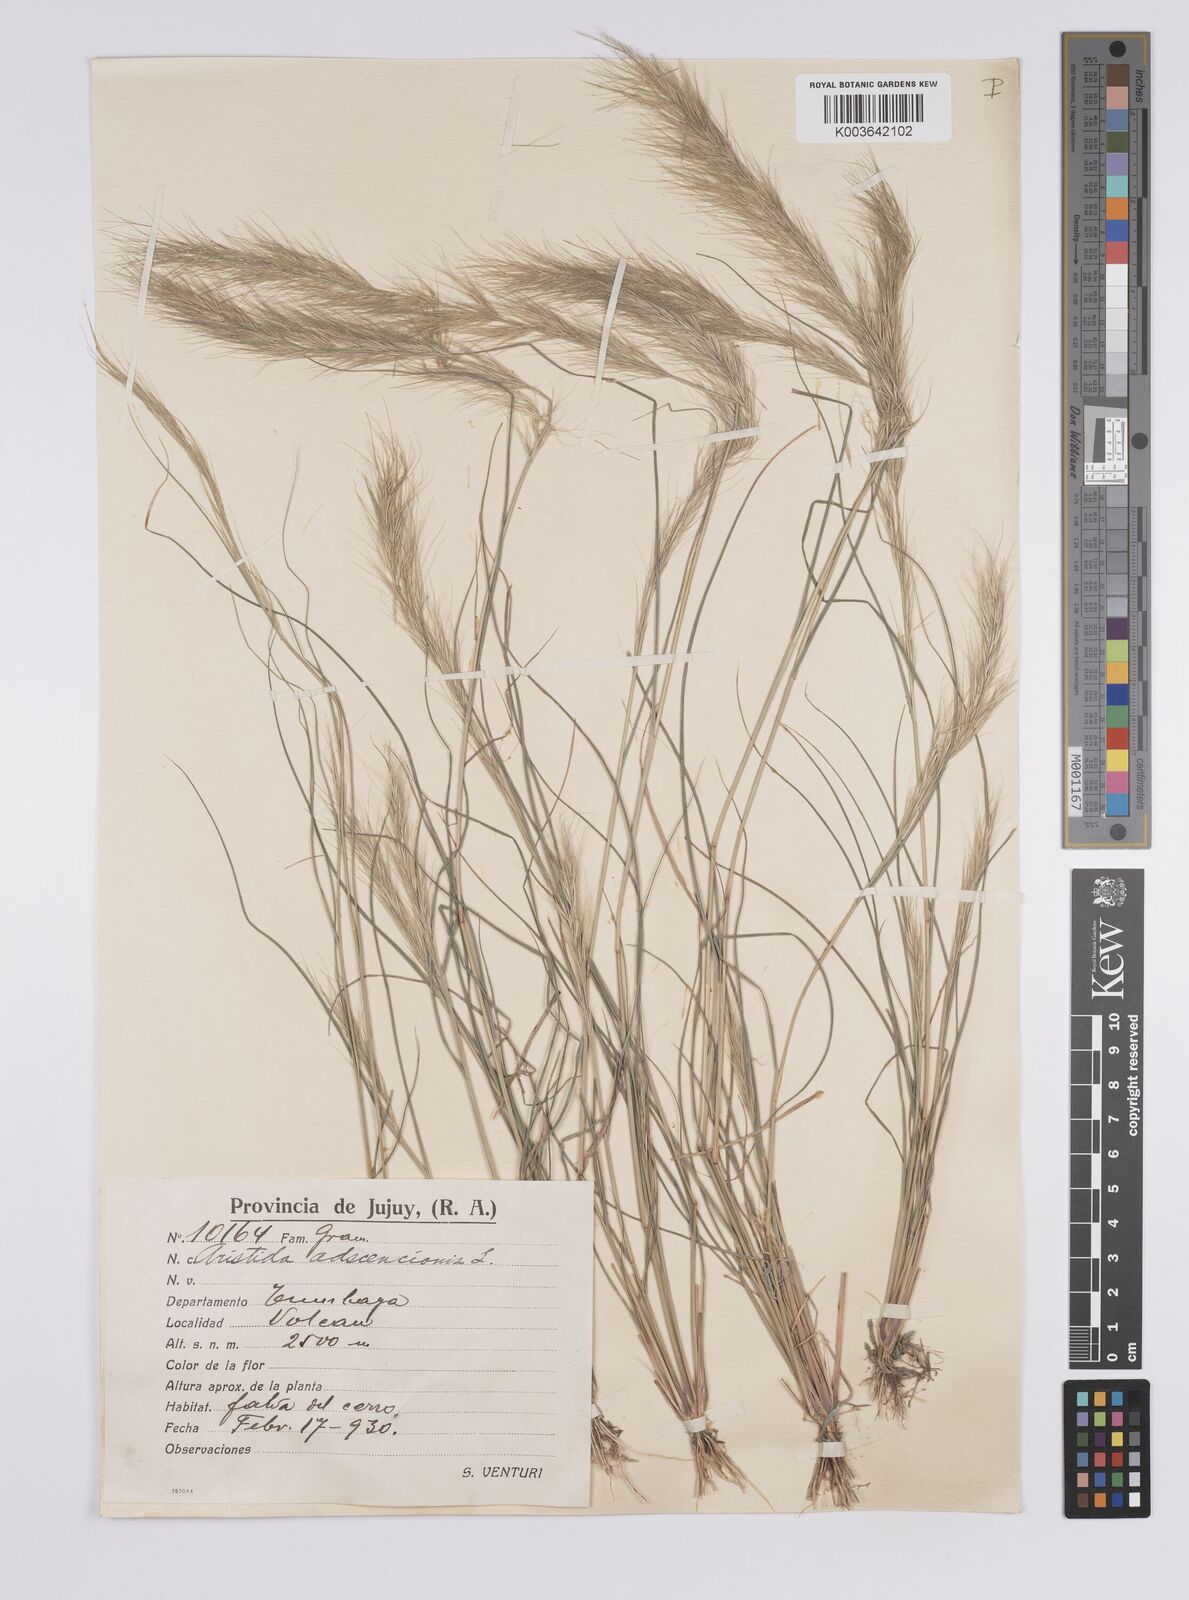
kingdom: Plantae
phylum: Tracheophyta
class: Liliopsida
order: Poales
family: Poaceae
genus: Aristida
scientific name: Aristida adscensionis
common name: Sixweeks threeawn
